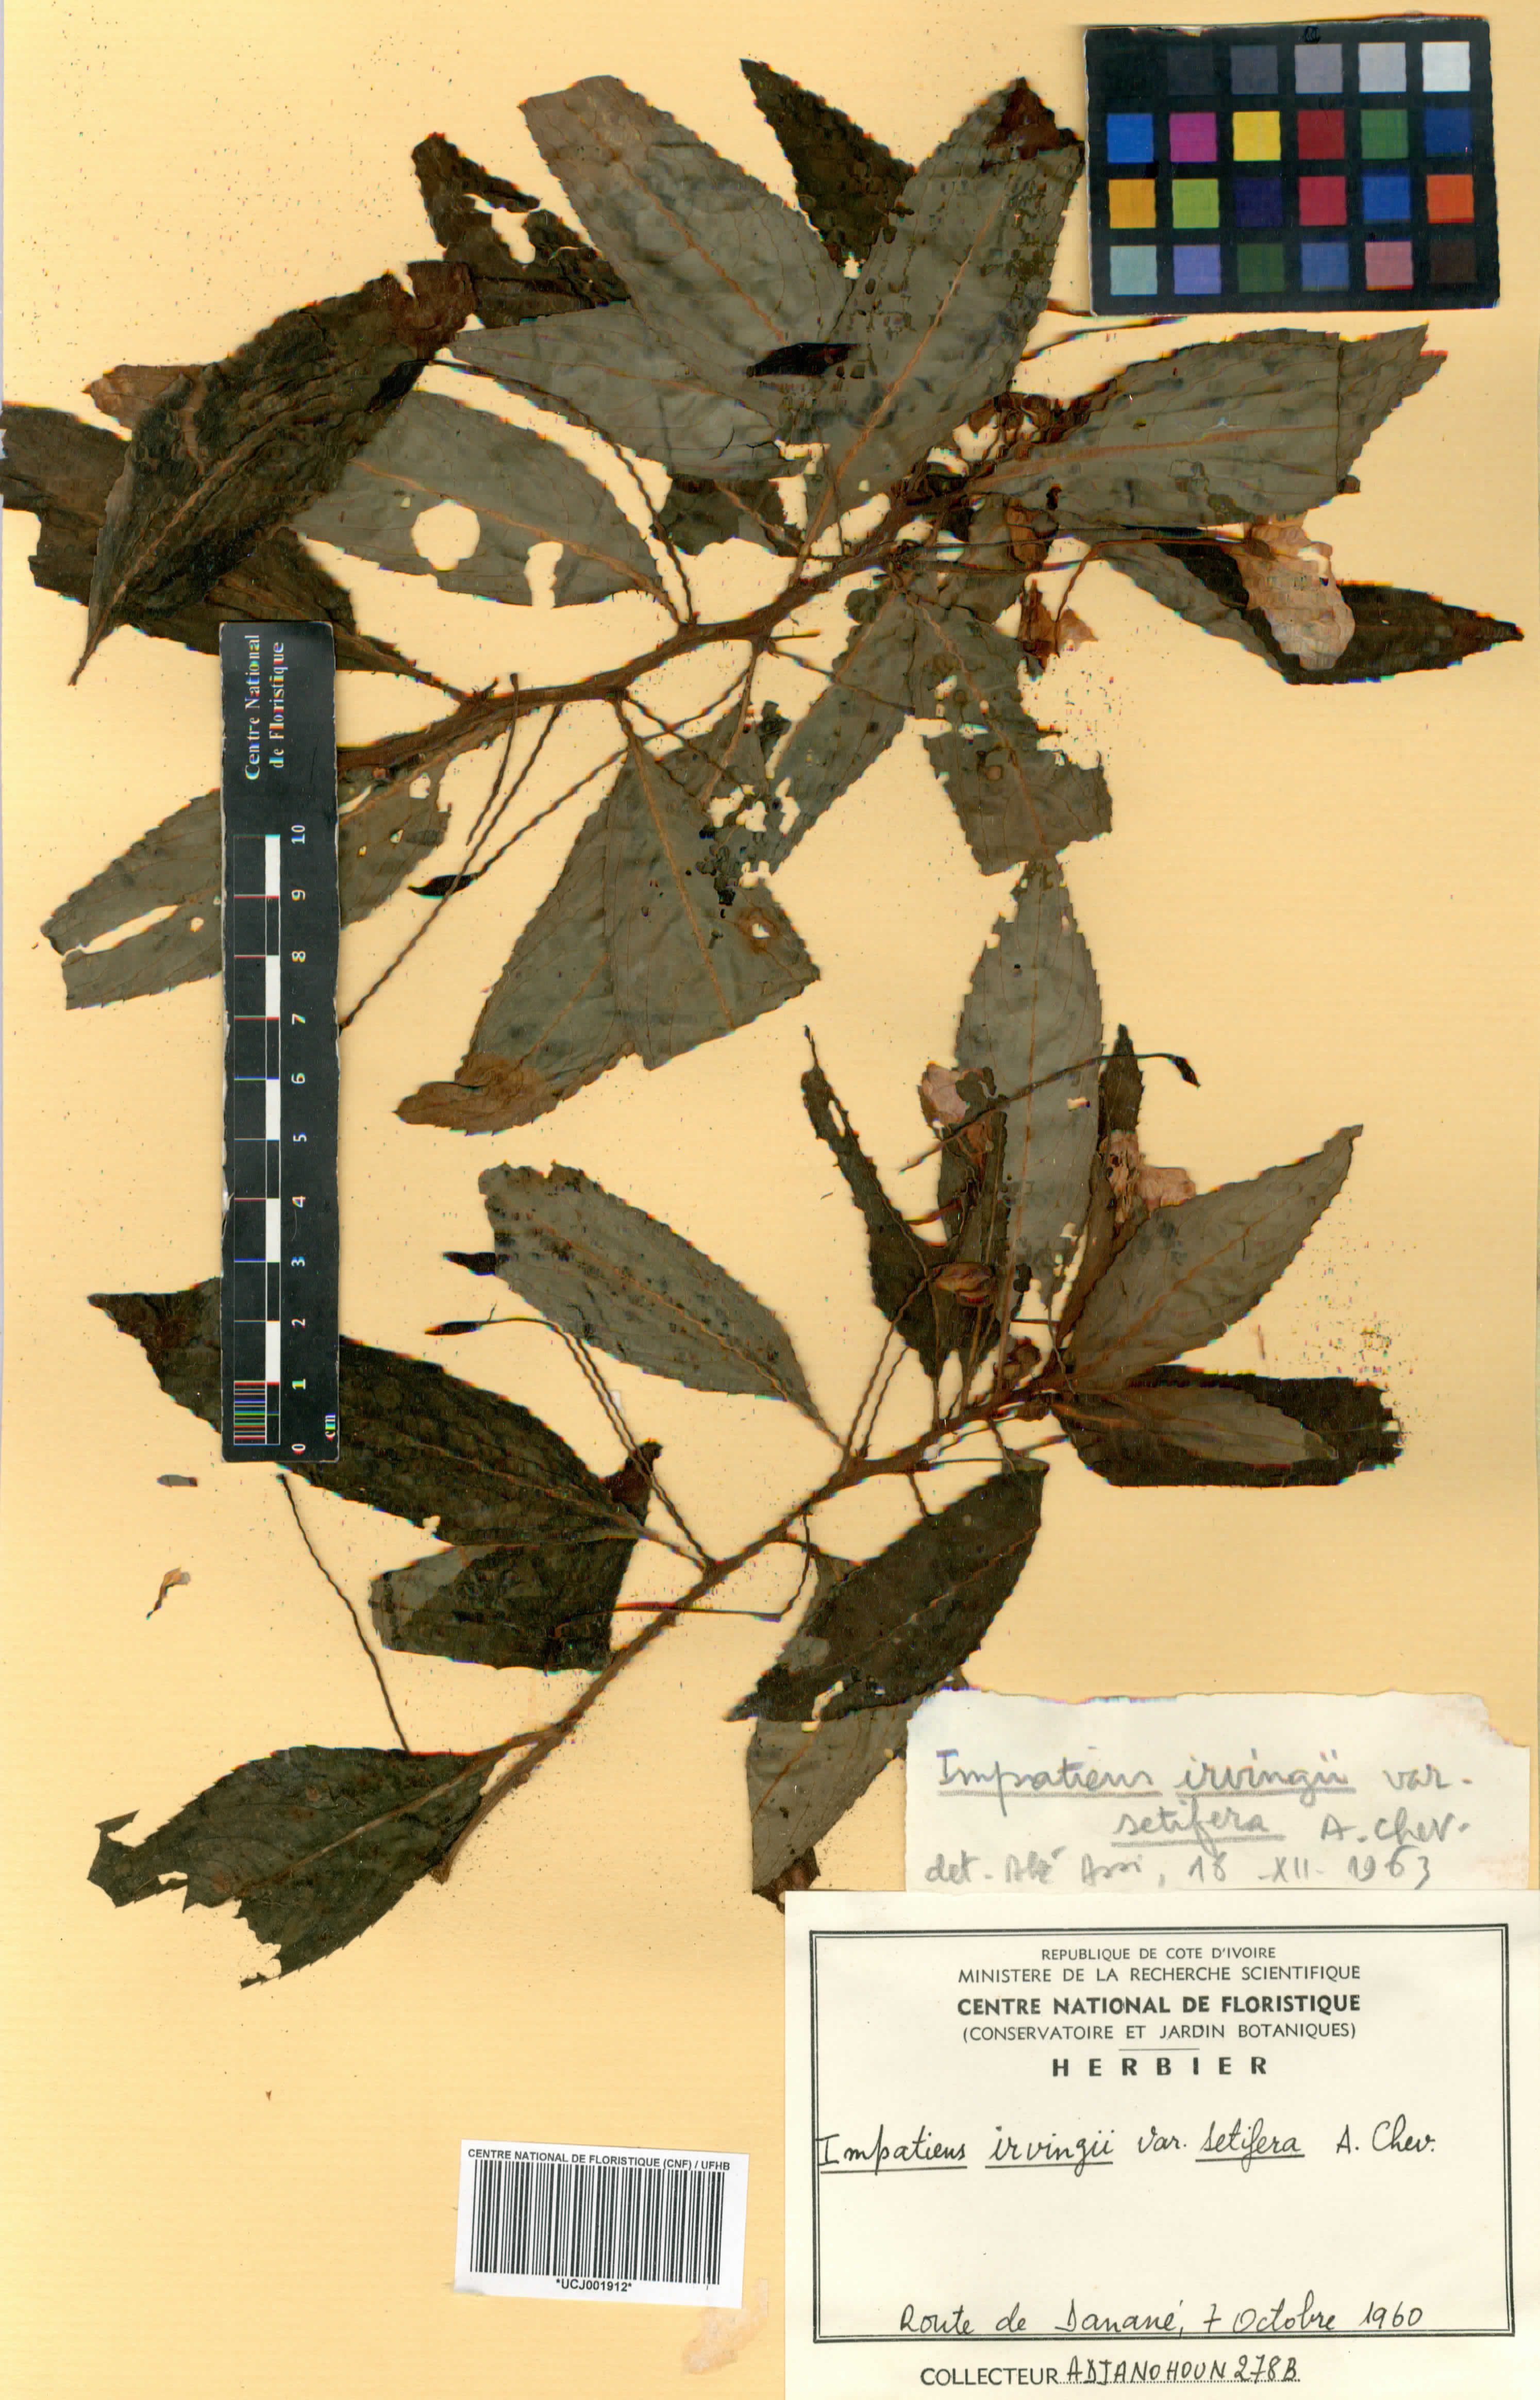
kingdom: Plantae
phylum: Tracheophyta
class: Magnoliopsida
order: Ericales
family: Balsaminaceae
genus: Impatiens
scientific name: Impatiens irvingii
